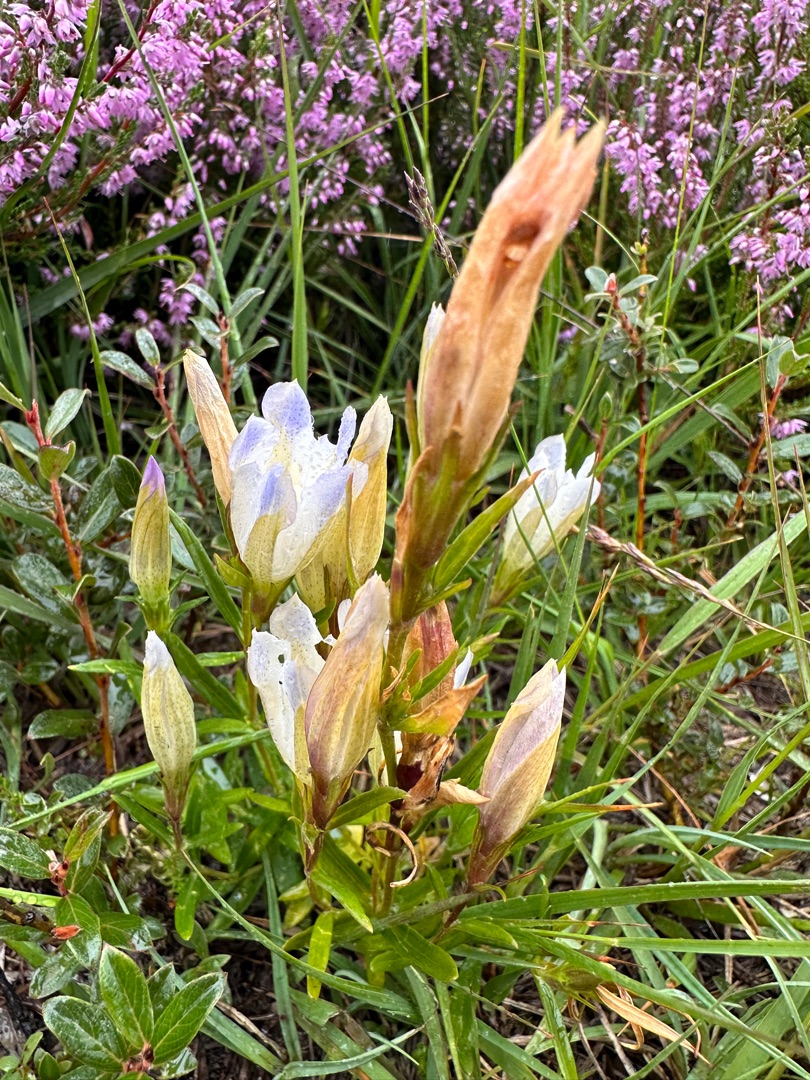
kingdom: Plantae
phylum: Tracheophyta
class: Magnoliopsida
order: Gentianales
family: Gentianaceae
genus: Gentiana
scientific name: Gentiana pneumonanthe
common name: Klokke-ensian
